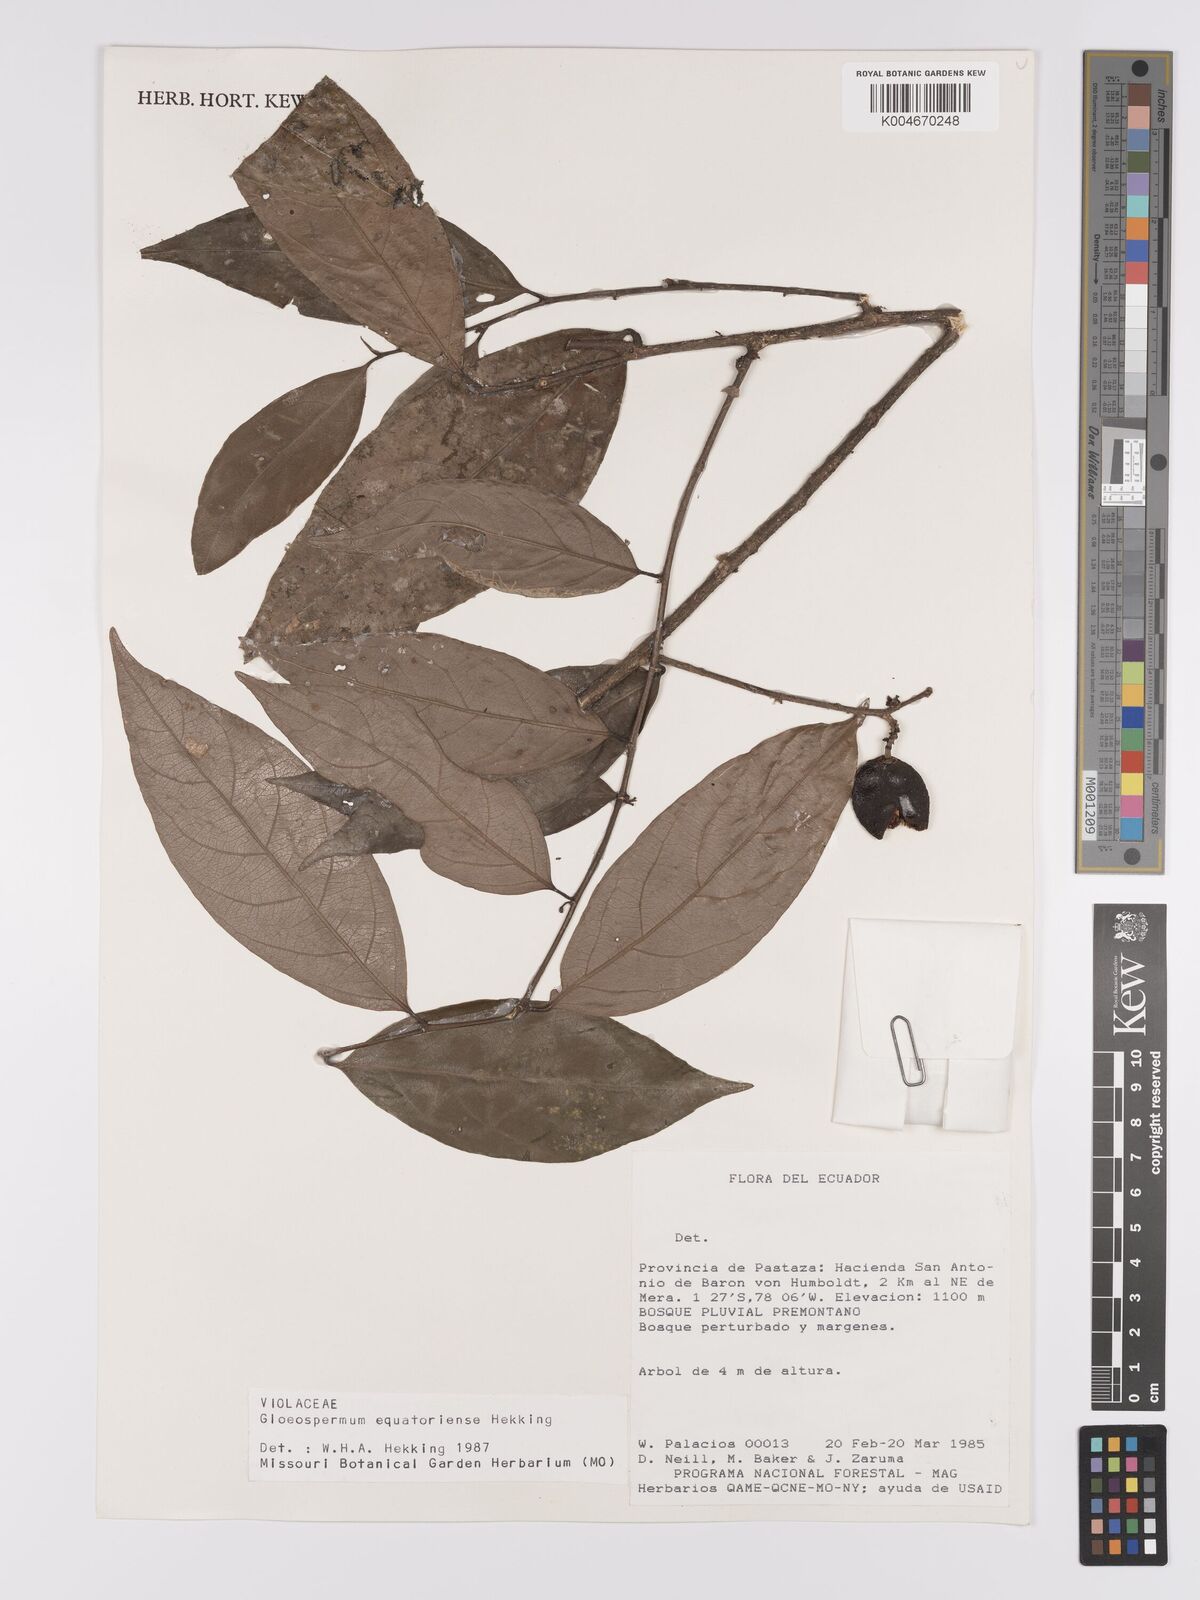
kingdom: Plantae
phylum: Tracheophyta
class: Magnoliopsida
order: Malpighiales
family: Violaceae
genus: Gloeospermum
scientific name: Gloeospermum equatoriense
